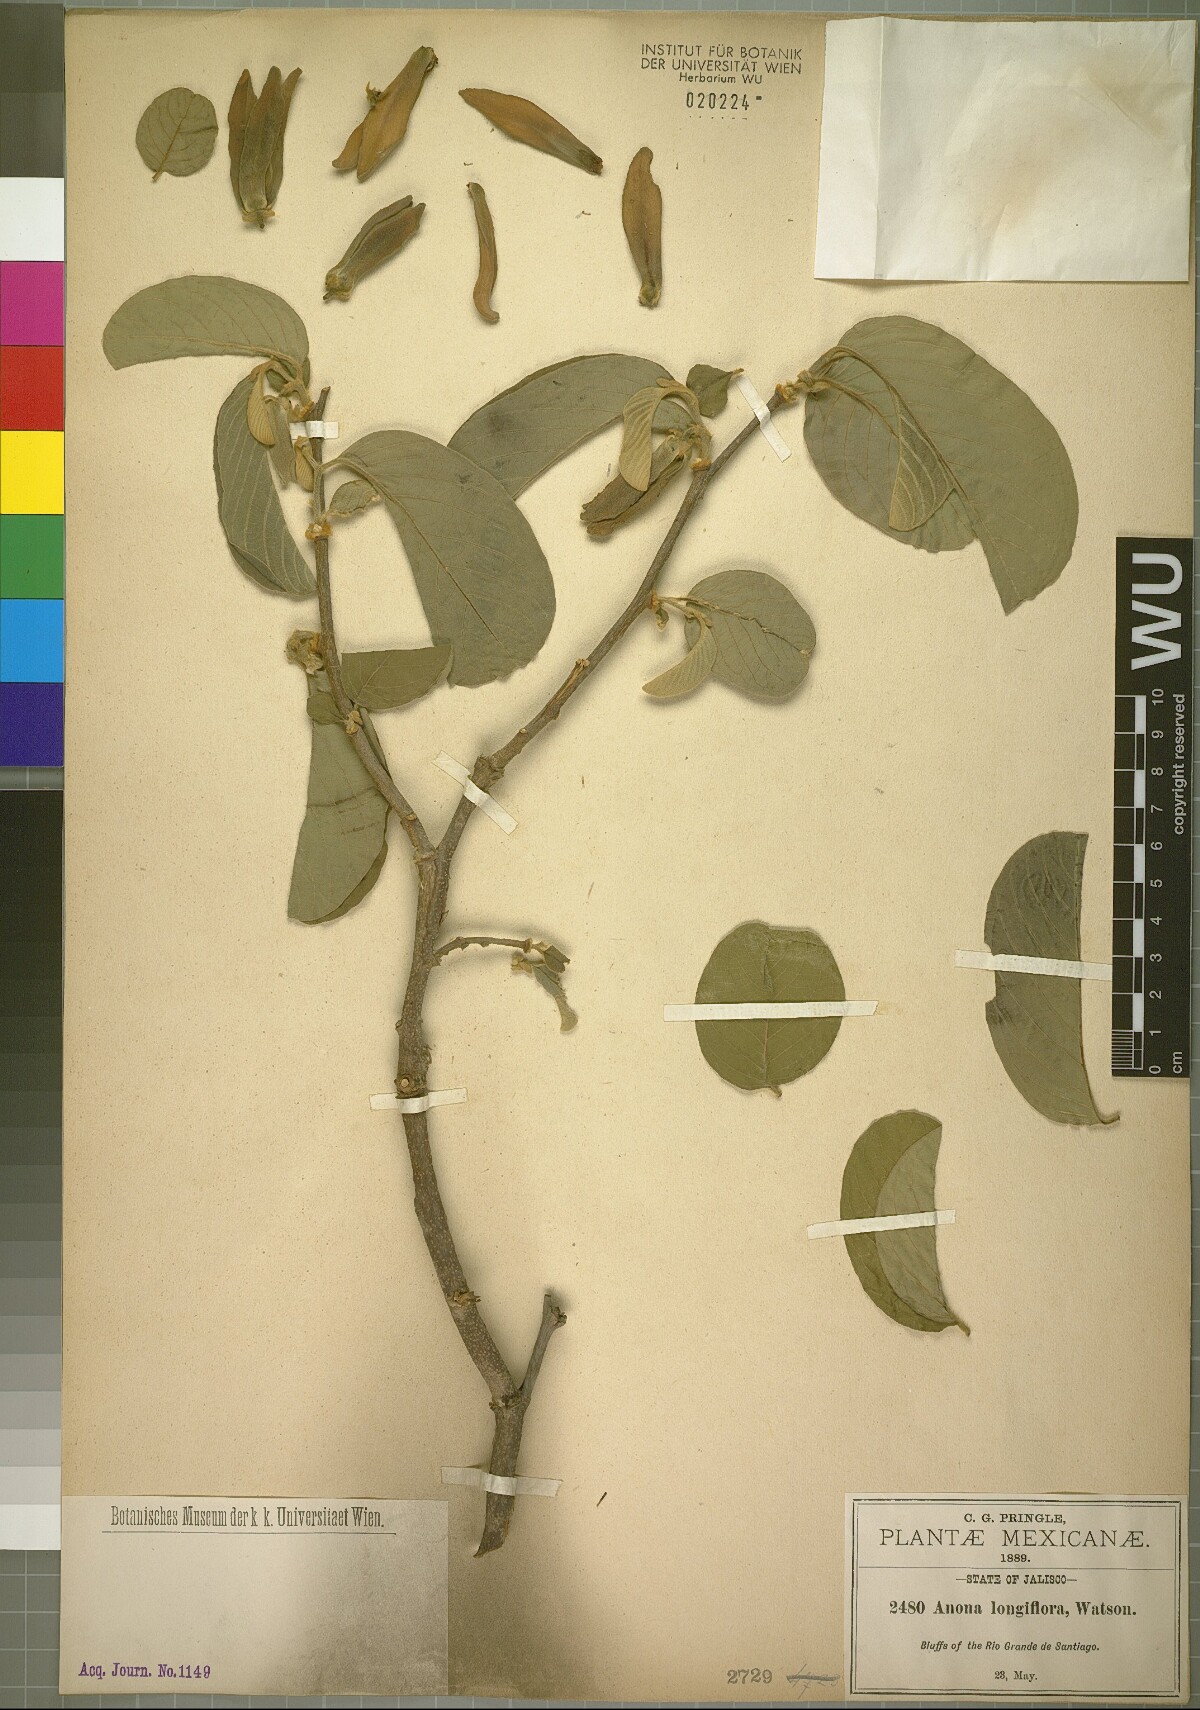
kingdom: Plantae
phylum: Tracheophyta
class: Magnoliopsida
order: Magnoliales
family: Annonaceae
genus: Annona
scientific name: Annona longiflora
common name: Wild cherimoya of jalisco
